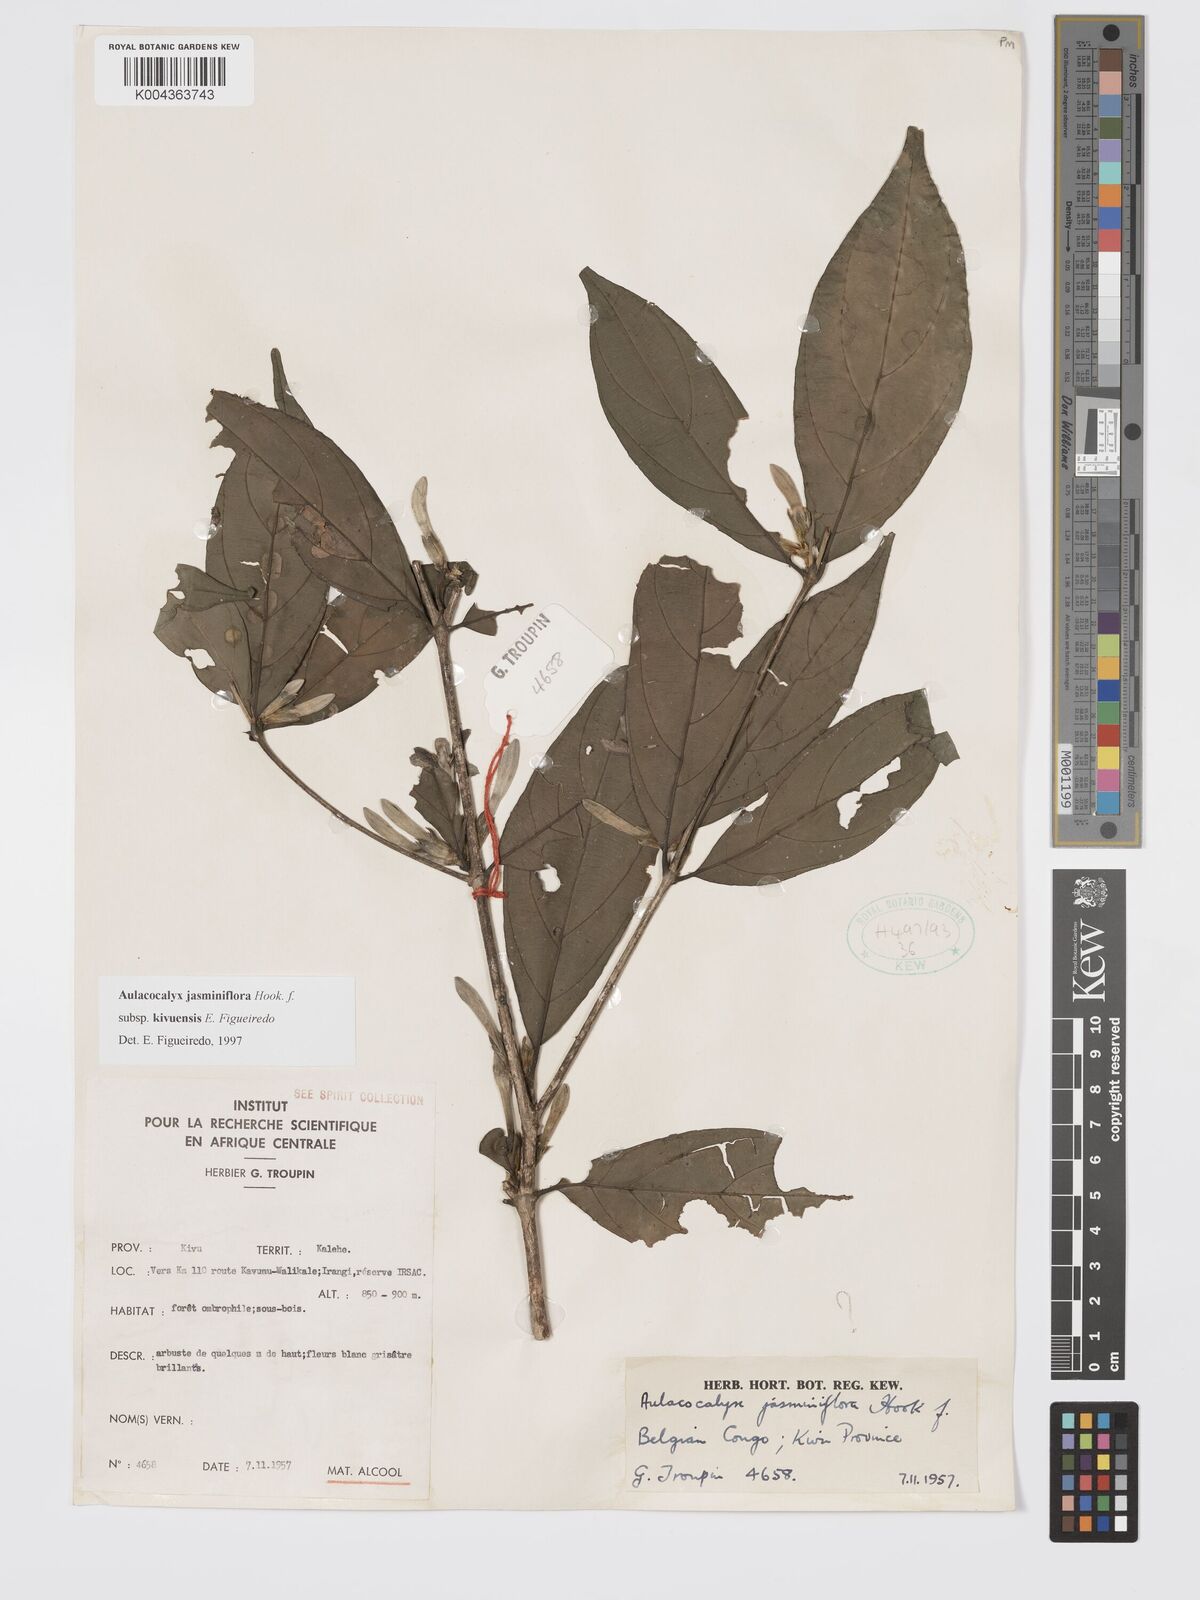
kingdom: Plantae
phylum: Tracheophyta
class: Magnoliopsida
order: Gentianales
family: Rubiaceae
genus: Aulacocalyx
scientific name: Aulacocalyx jasminiflora
